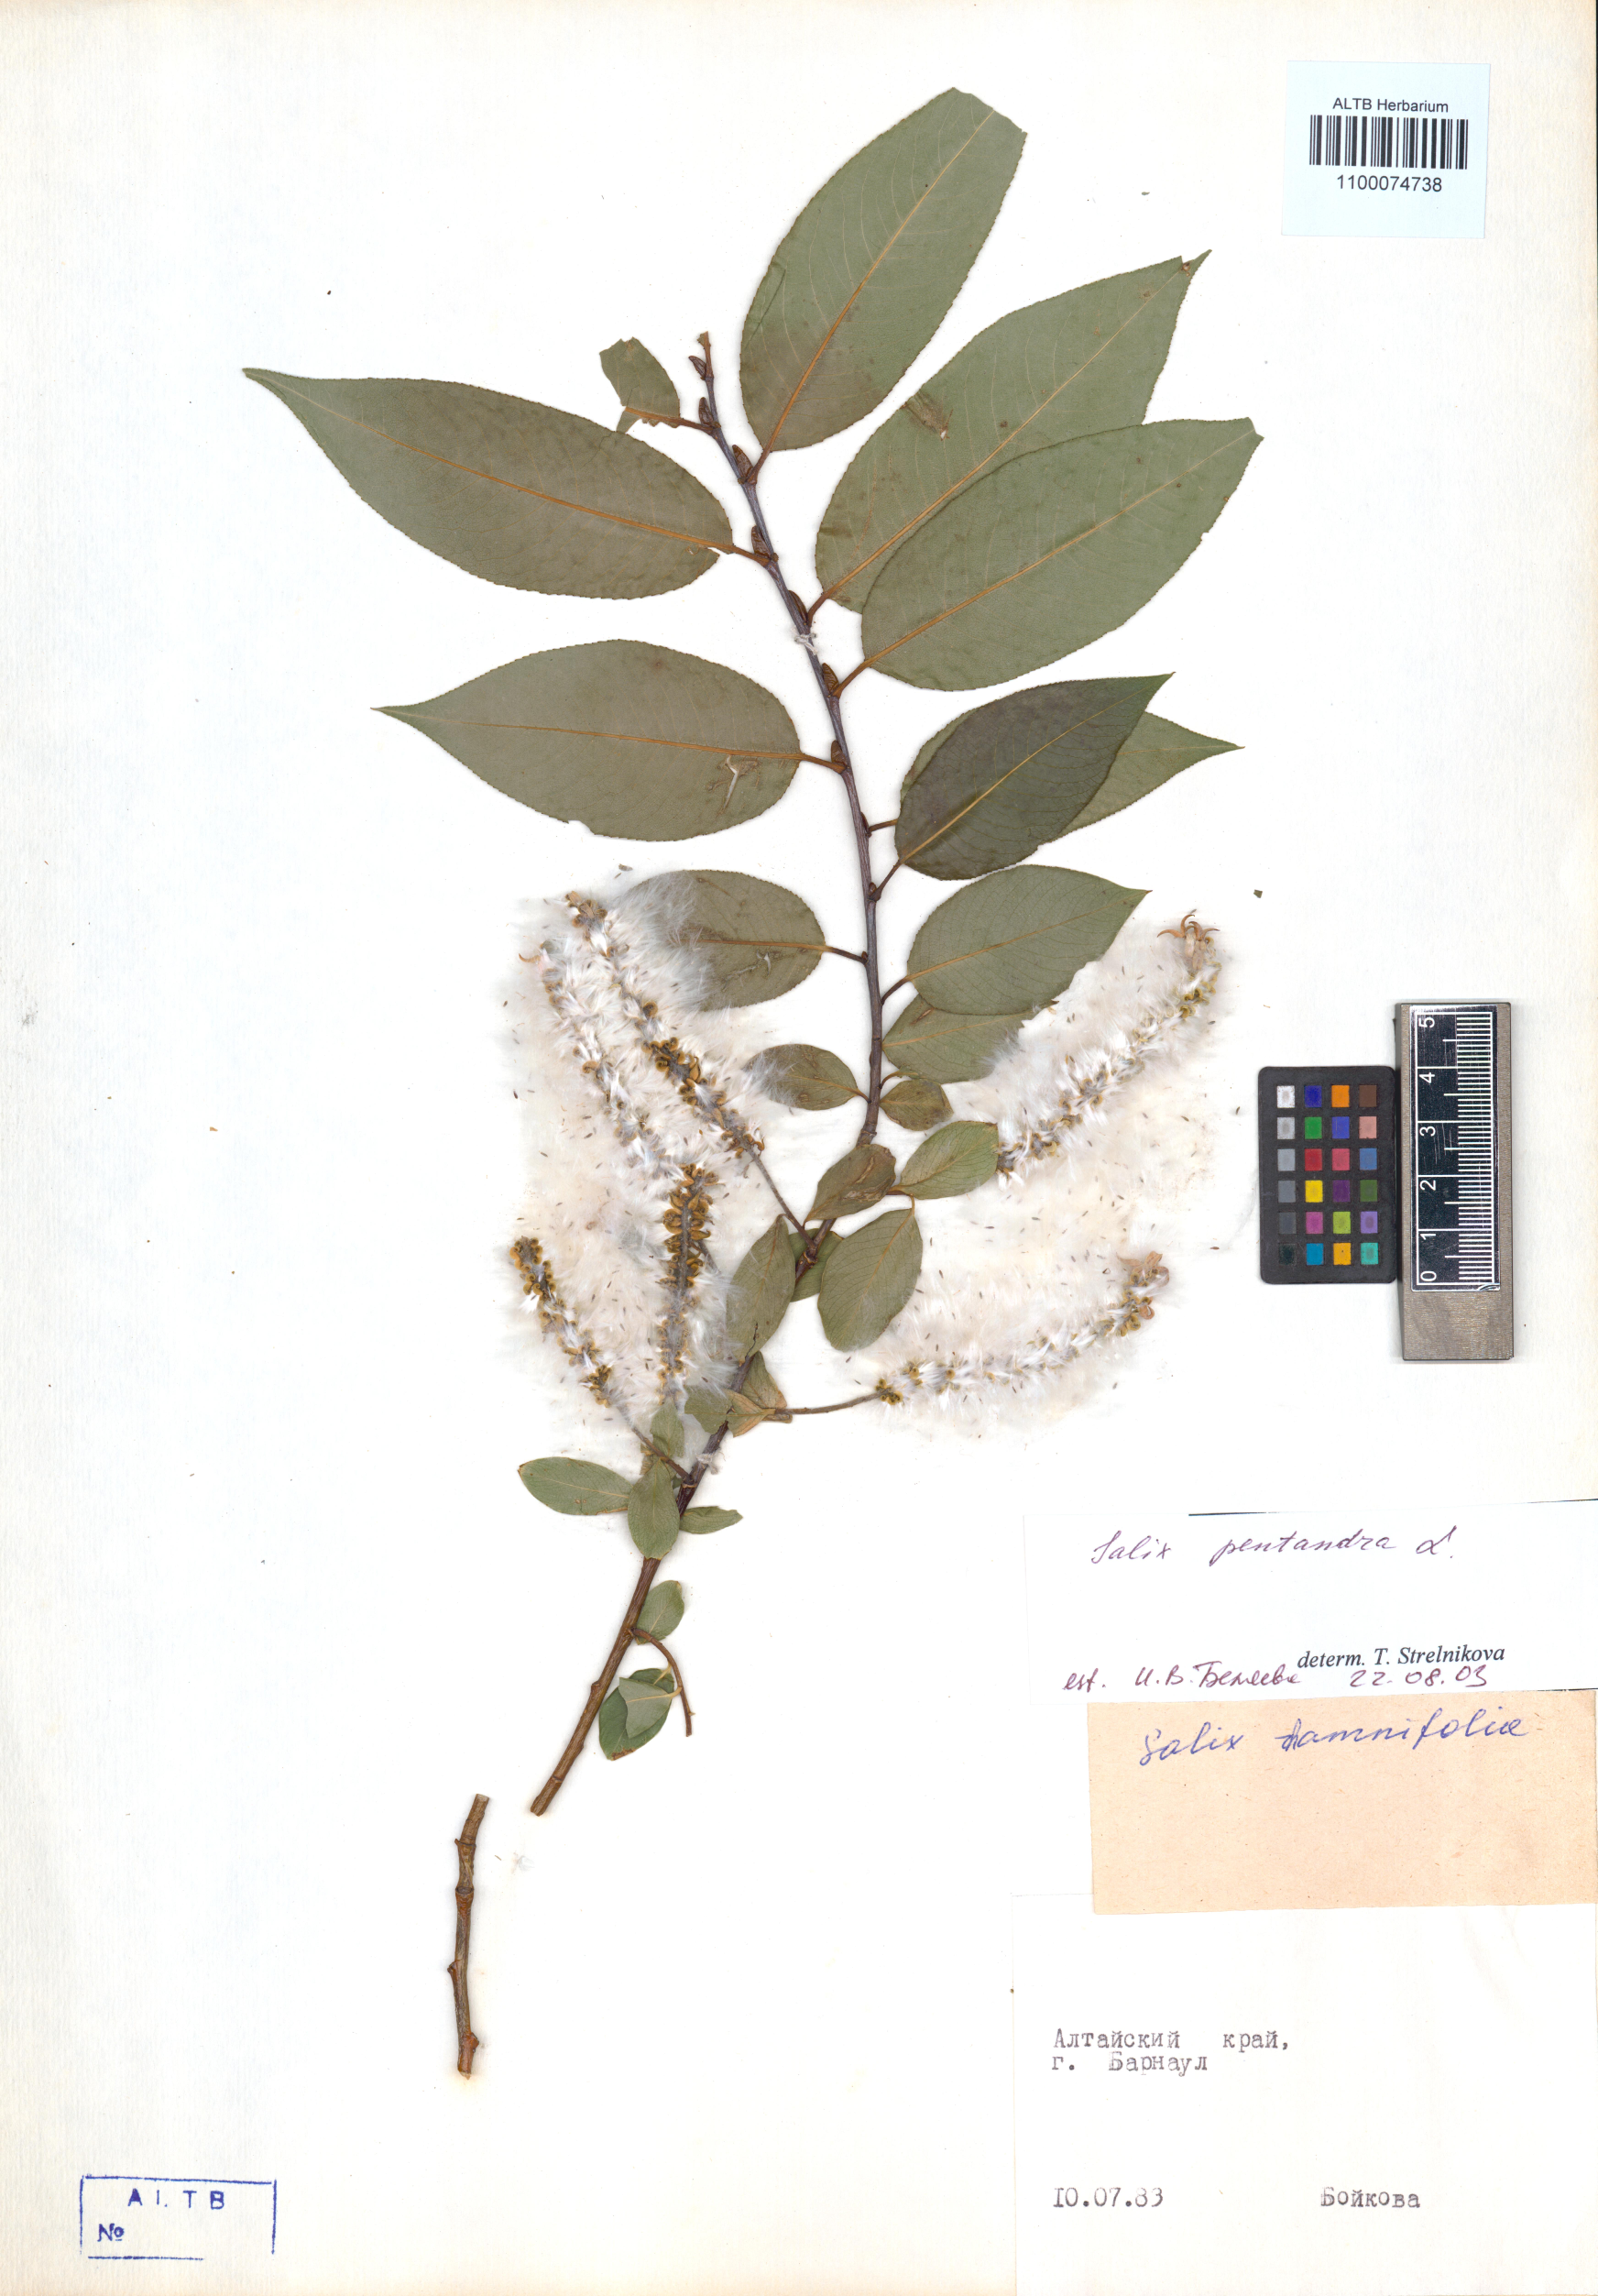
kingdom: Plantae
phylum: Tracheophyta
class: Magnoliopsida
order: Malpighiales
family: Salicaceae
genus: Salix
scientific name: Salix pentandra
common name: Bay willow
